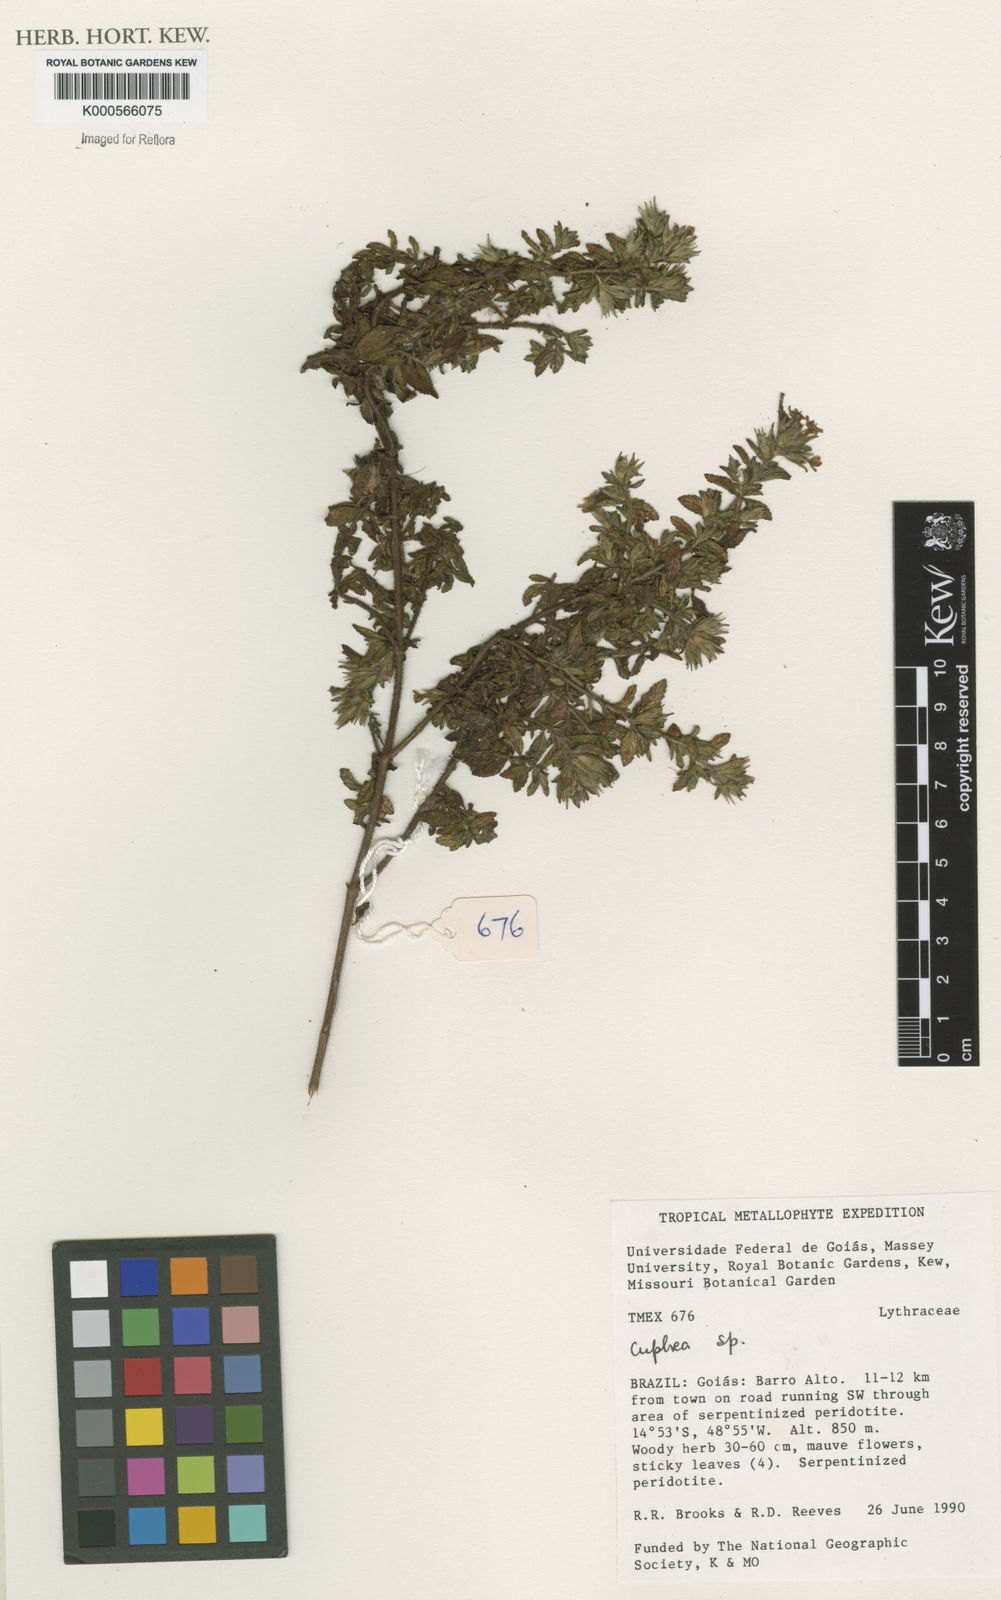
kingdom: Plantae
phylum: Tracheophyta
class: Magnoliopsida
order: Myrtales
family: Lythraceae
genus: Cuphea
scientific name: Cuphea
